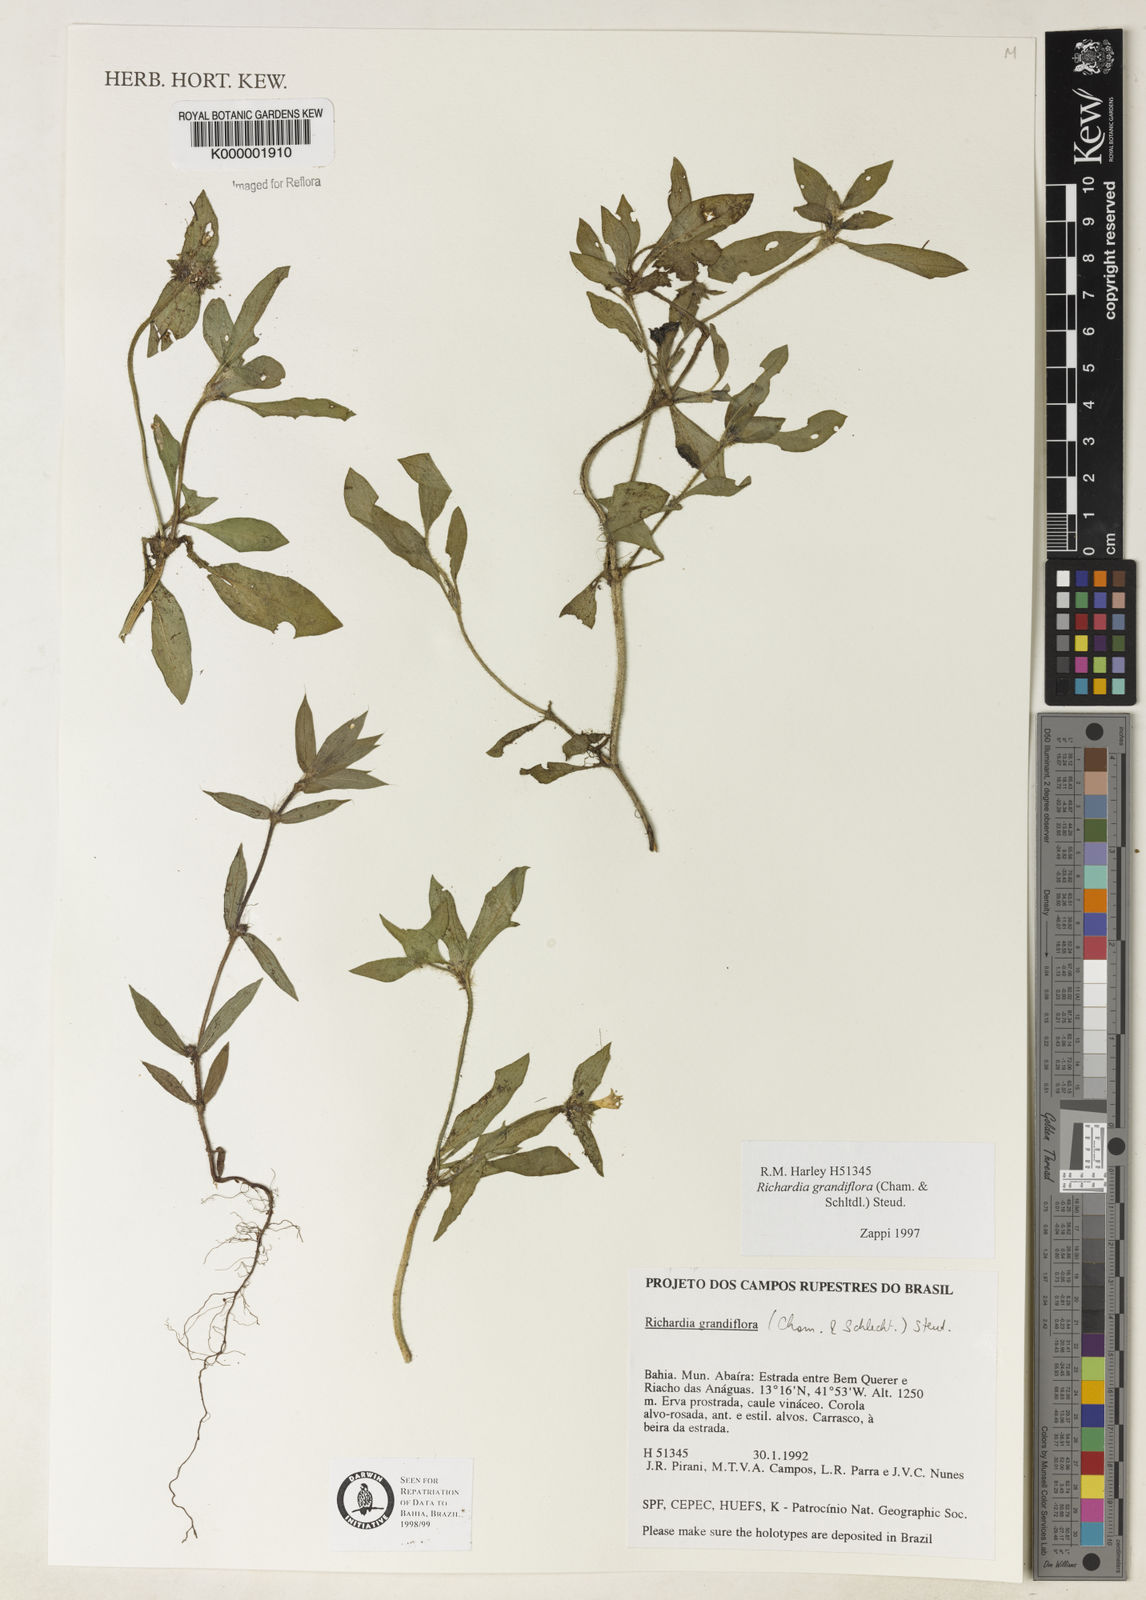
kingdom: Plantae
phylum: Tracheophyta
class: Magnoliopsida
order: Gentianales
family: Rubiaceae
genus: Richardia
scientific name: Richardia grandiflora
